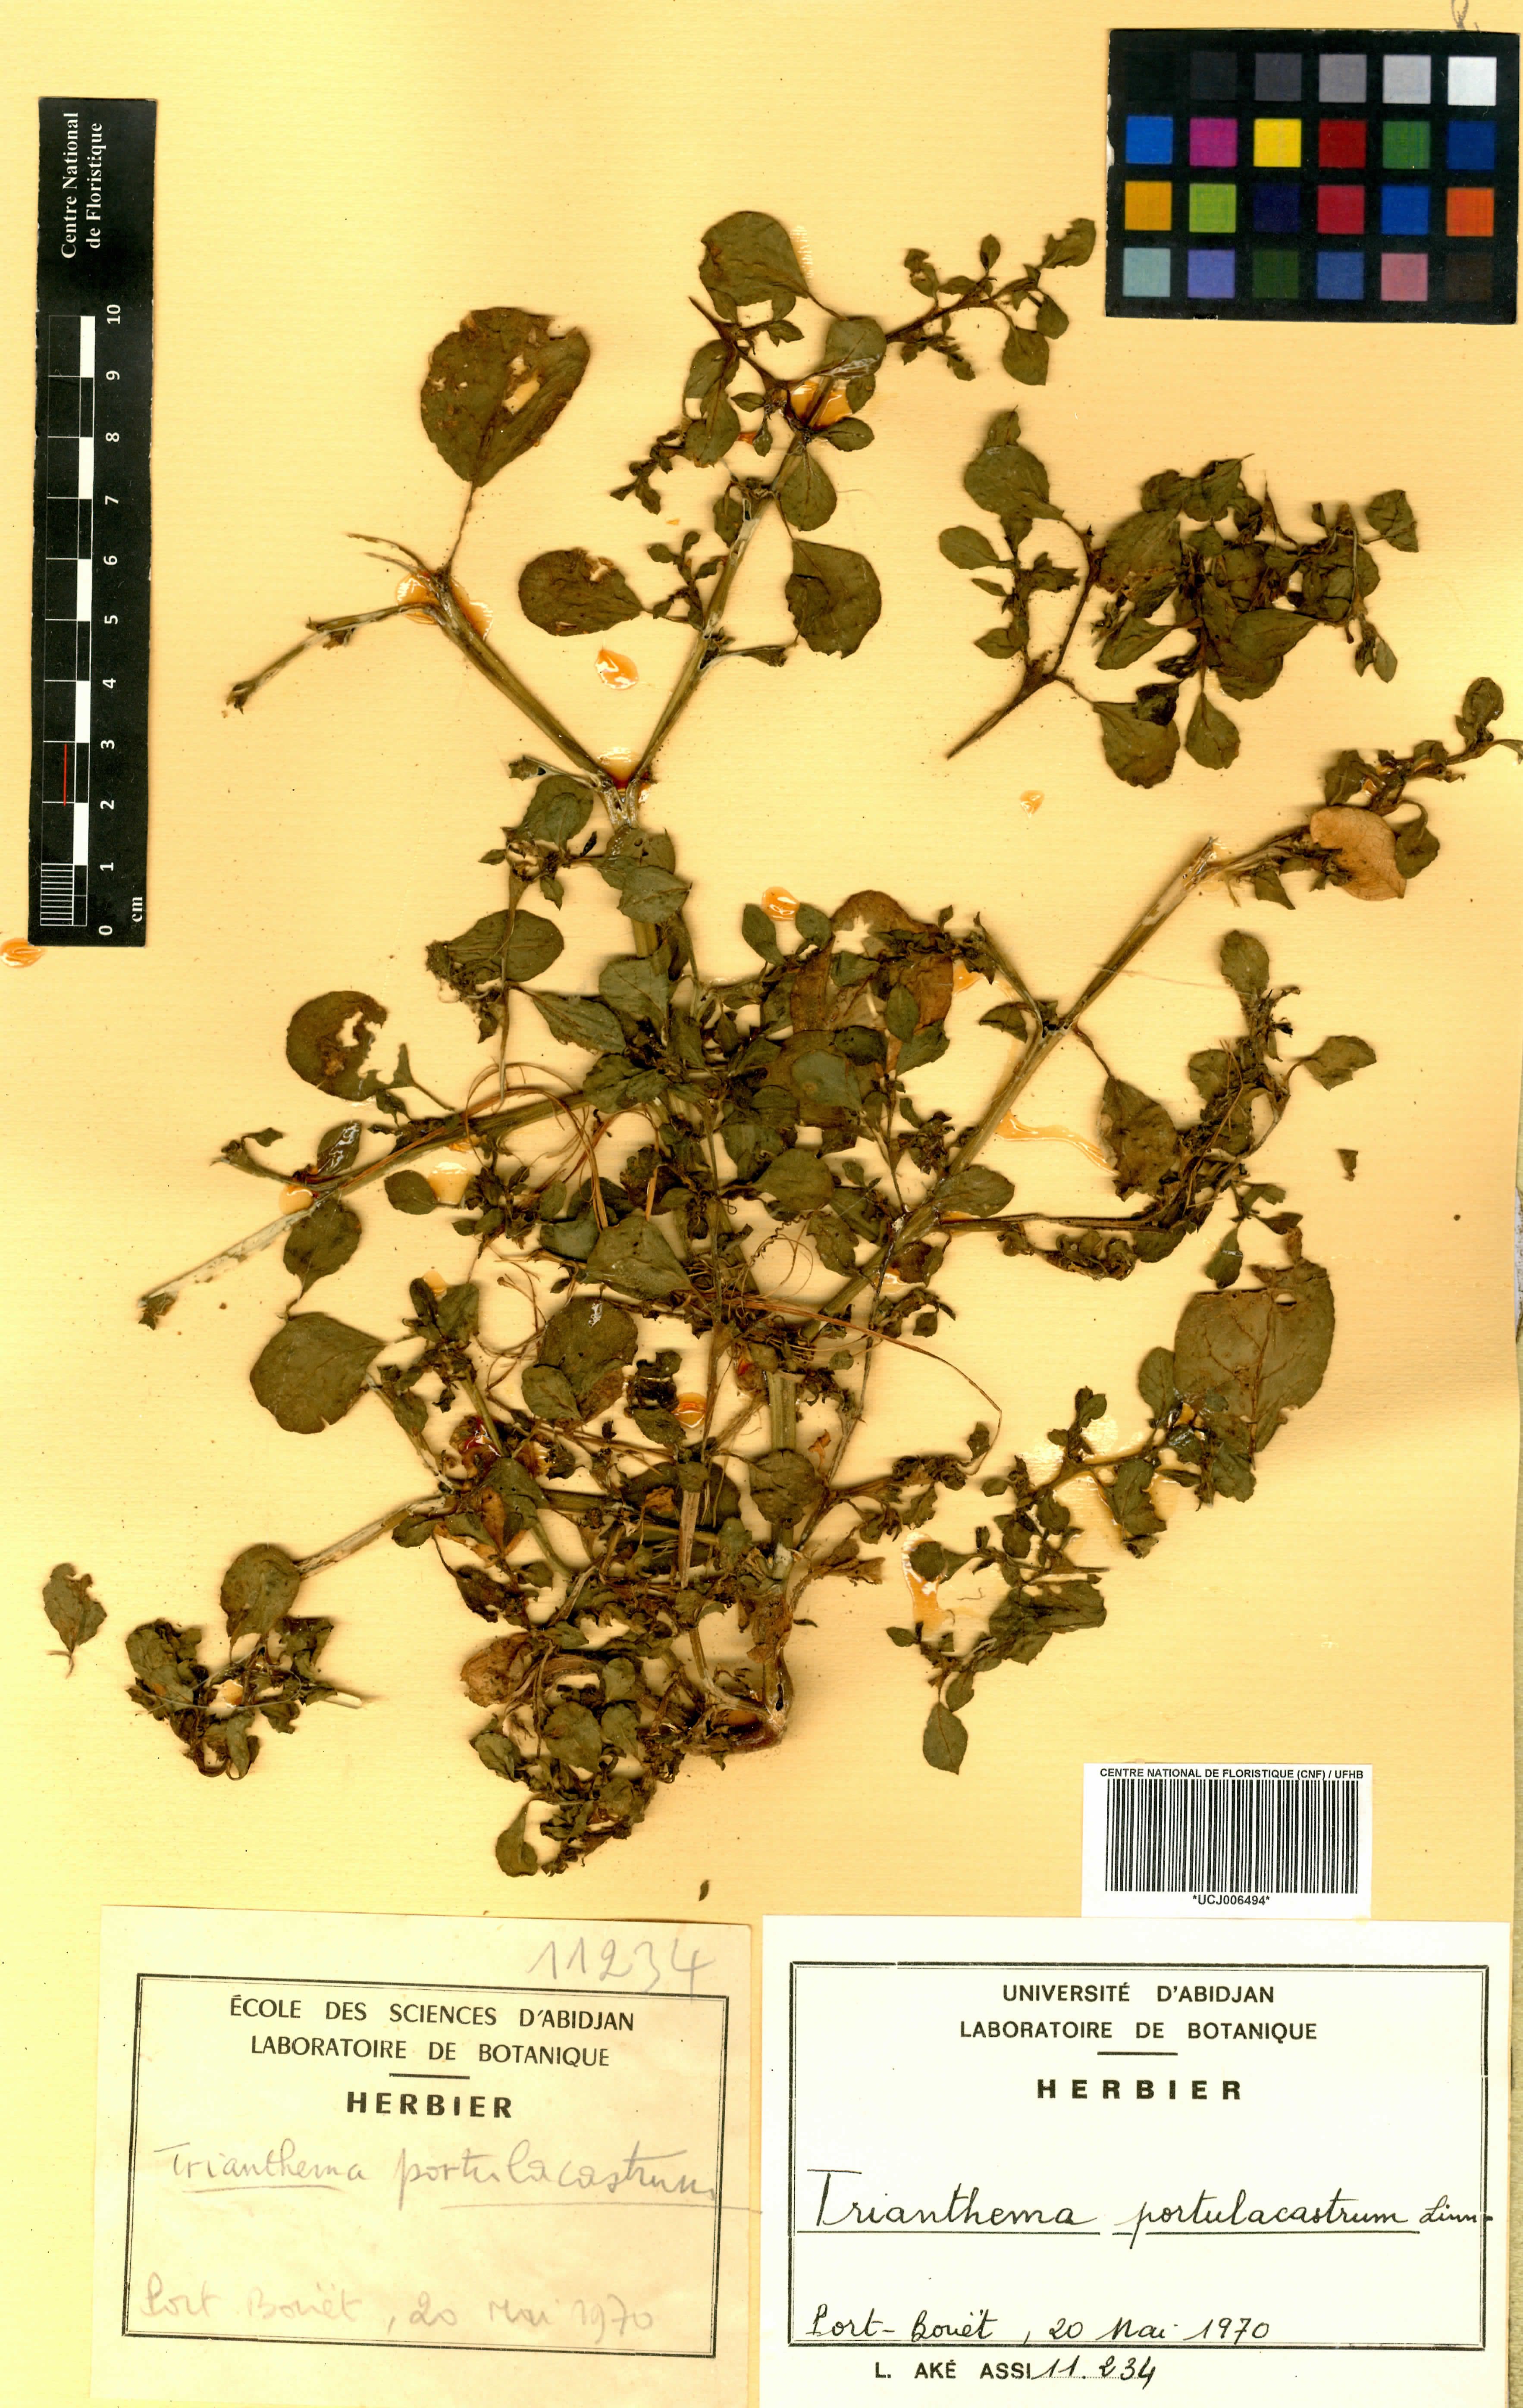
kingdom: Plantae
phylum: Tracheophyta
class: Magnoliopsida
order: Caryophyllales
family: Aizoaceae
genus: Trianthema
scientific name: Trianthema portulacastrum
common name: Desert horsepurslane
